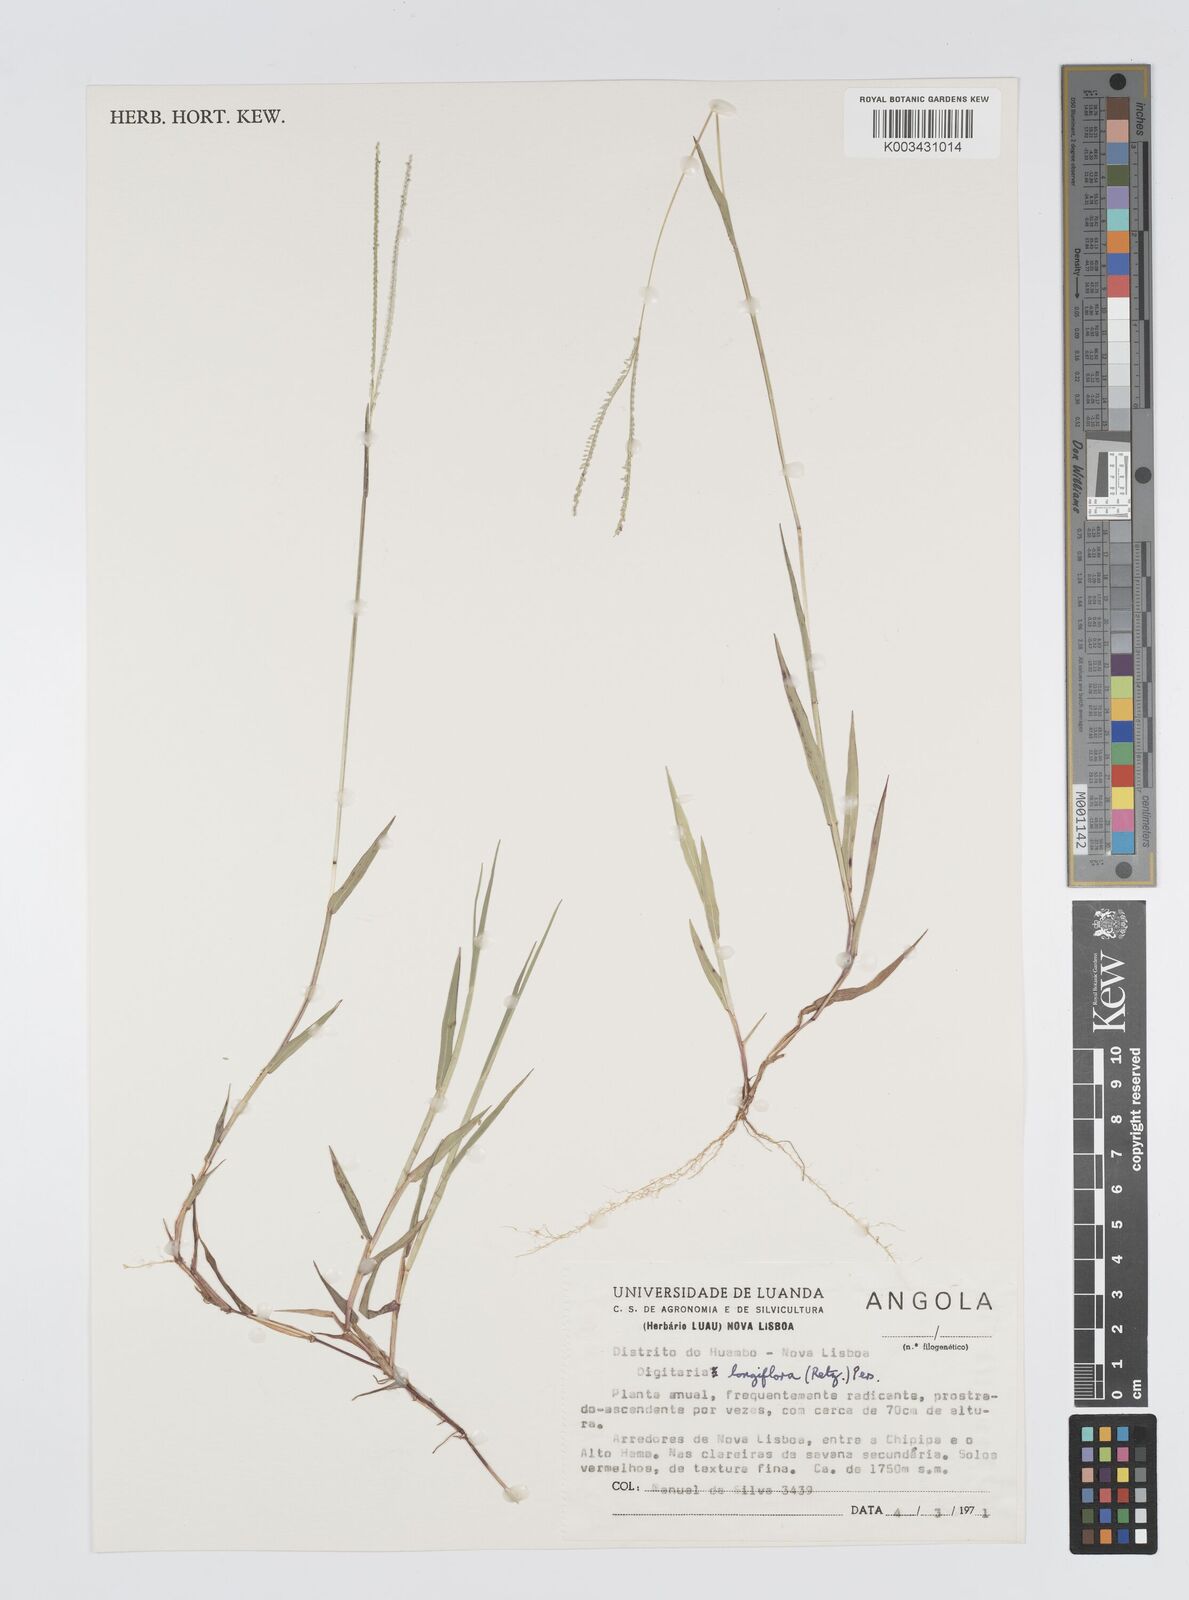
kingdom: Plantae
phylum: Tracheophyta
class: Liliopsida
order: Poales
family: Poaceae
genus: Digitaria
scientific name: Digitaria longiflora
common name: Wire crabgrass
